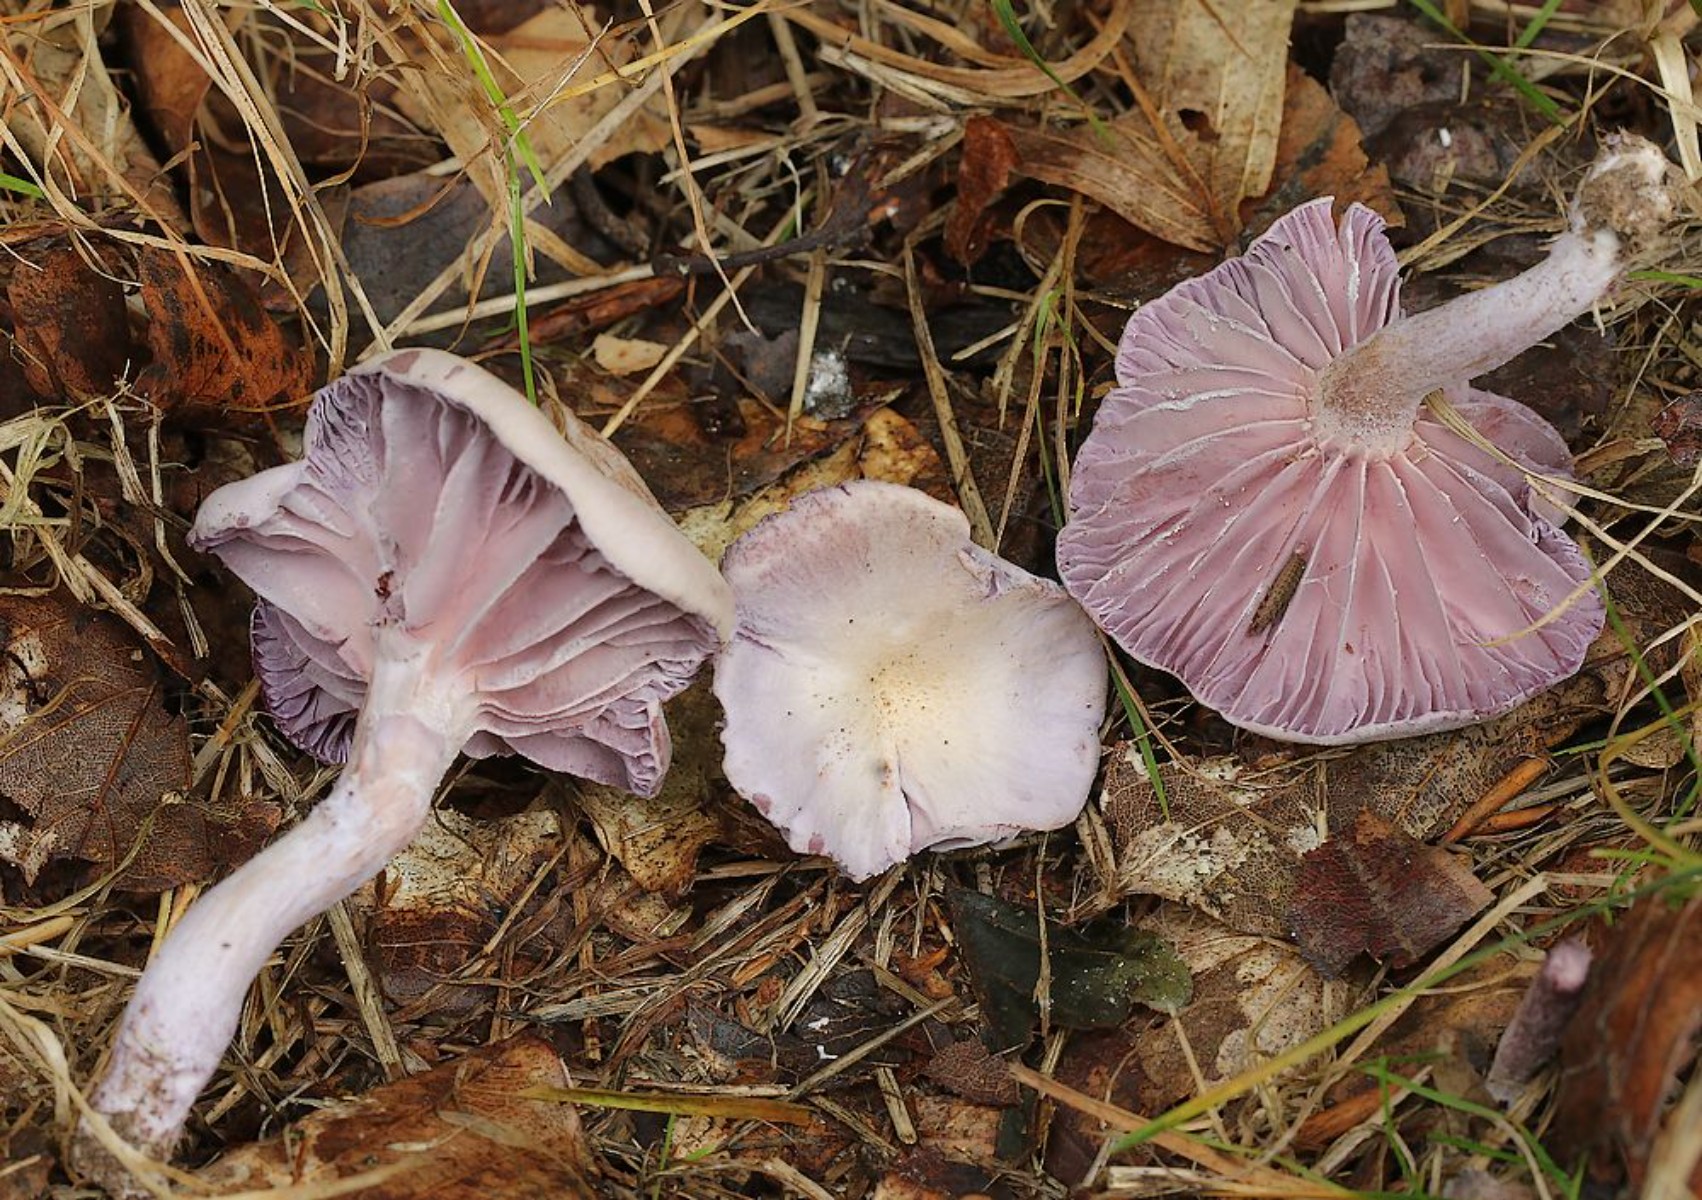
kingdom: Fungi
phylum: Basidiomycota
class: Agaricomycetes
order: Agaricales
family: Hydnangiaceae
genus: Laccaria
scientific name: Laccaria amethystina
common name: violet ametysthat
